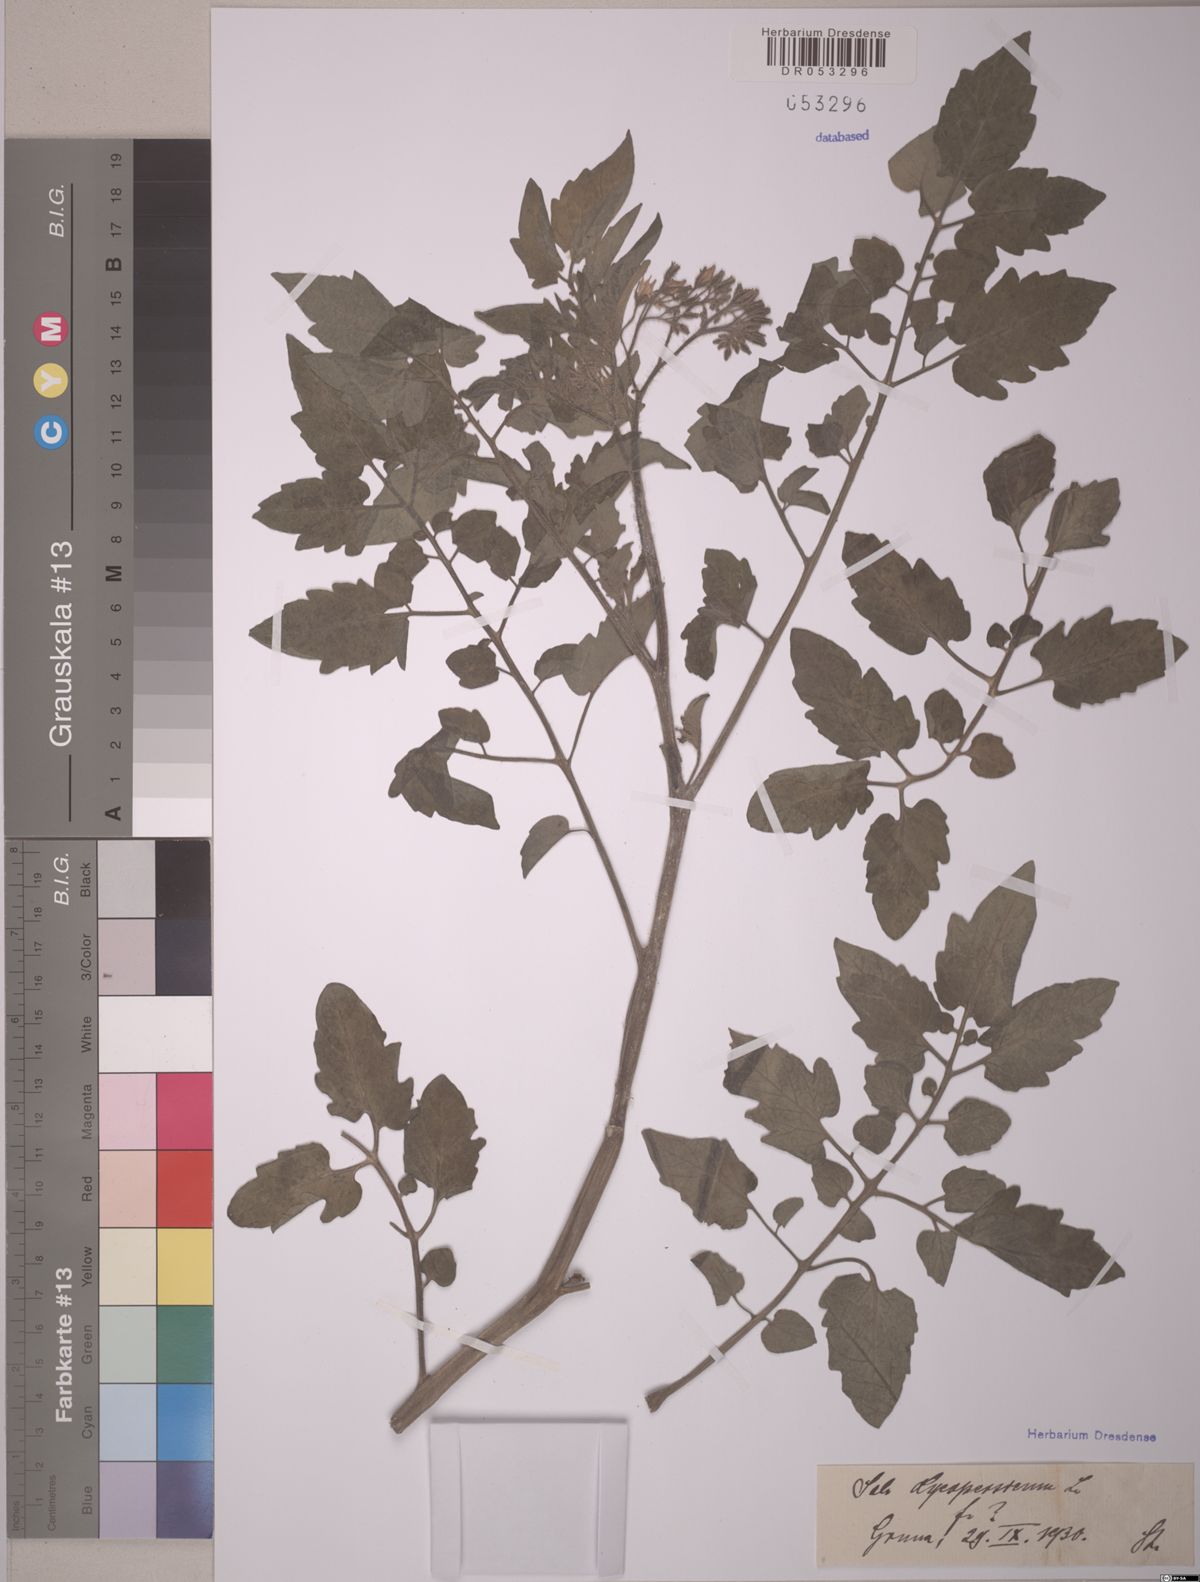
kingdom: Plantae
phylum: Tracheophyta
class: Magnoliopsida
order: Solanales
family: Solanaceae
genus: Solanum
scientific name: Solanum lycopersicum
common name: Garden tomato
